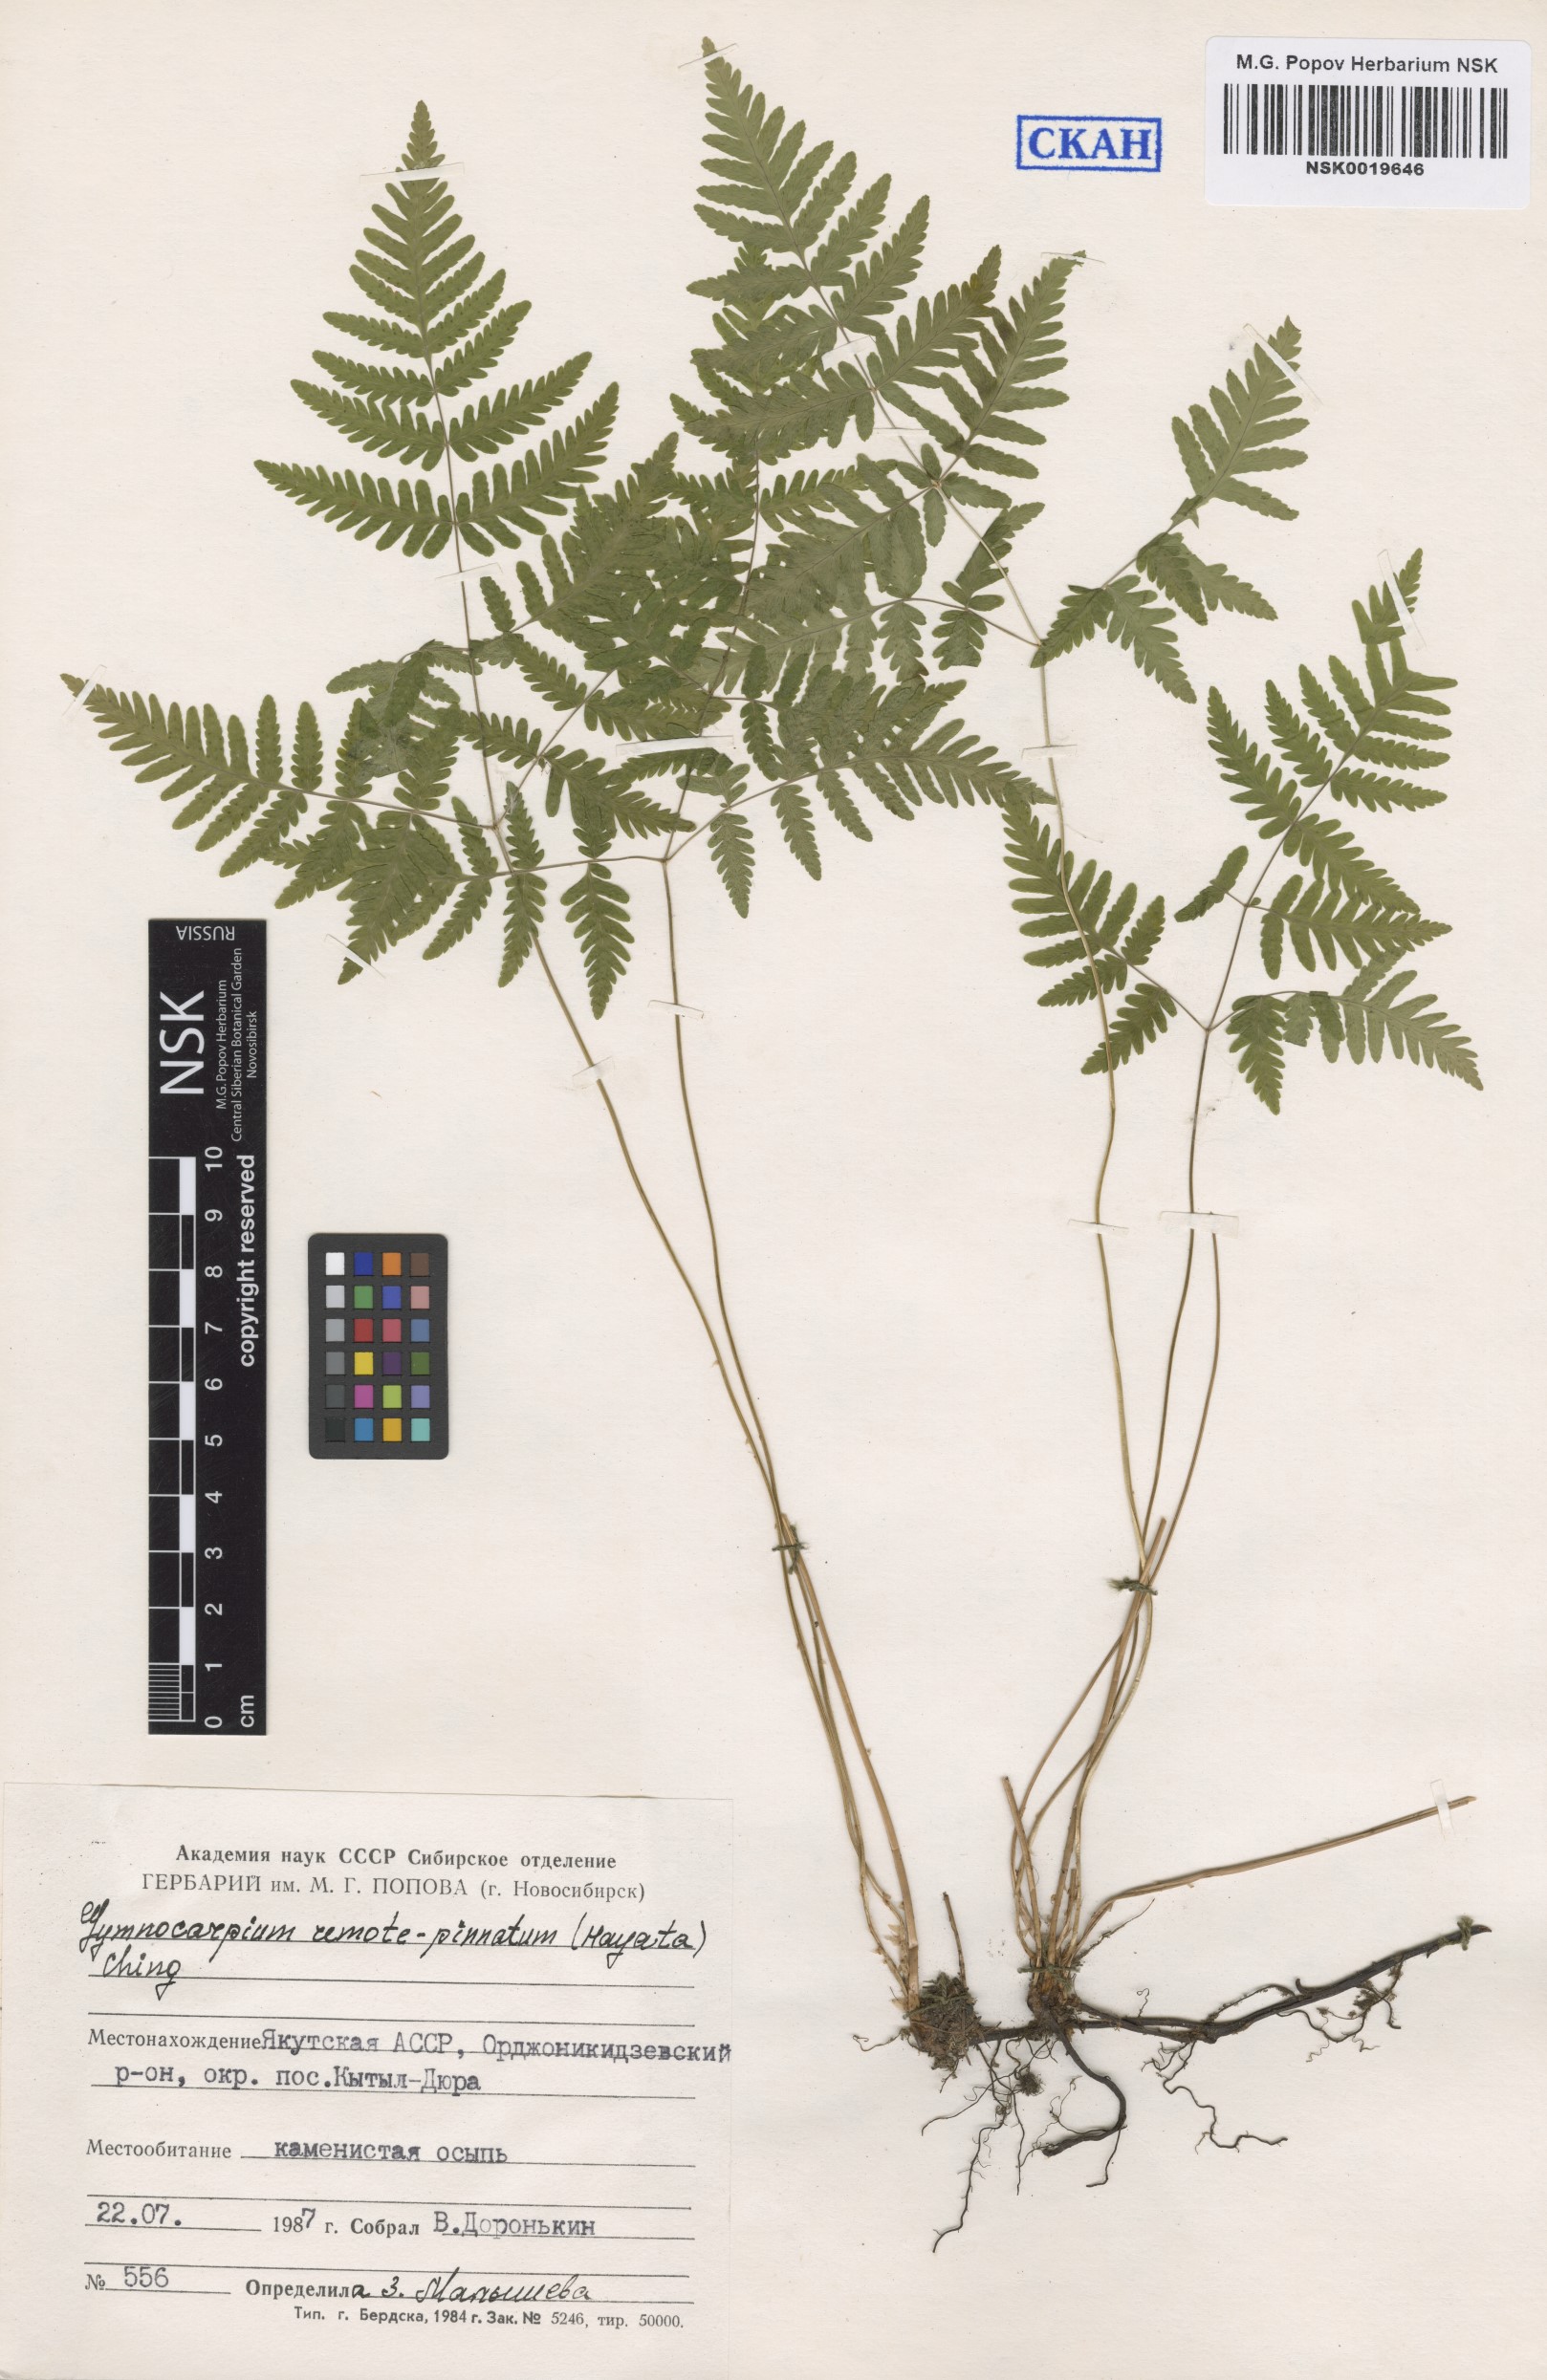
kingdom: Plantae
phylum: Tracheophyta
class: Polypodiopsida
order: Polypodiales
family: Cystopteridaceae
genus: Gymnocarpium
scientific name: Gymnocarpium continentale
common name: Asian oak fern
